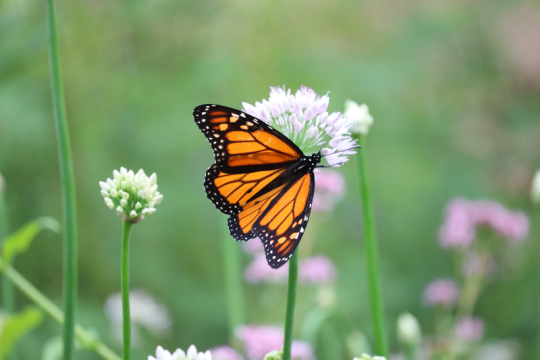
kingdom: Animalia
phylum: Arthropoda
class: Insecta
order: Lepidoptera
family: Nymphalidae
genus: Danaus
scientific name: Danaus plexippus
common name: Monarch
